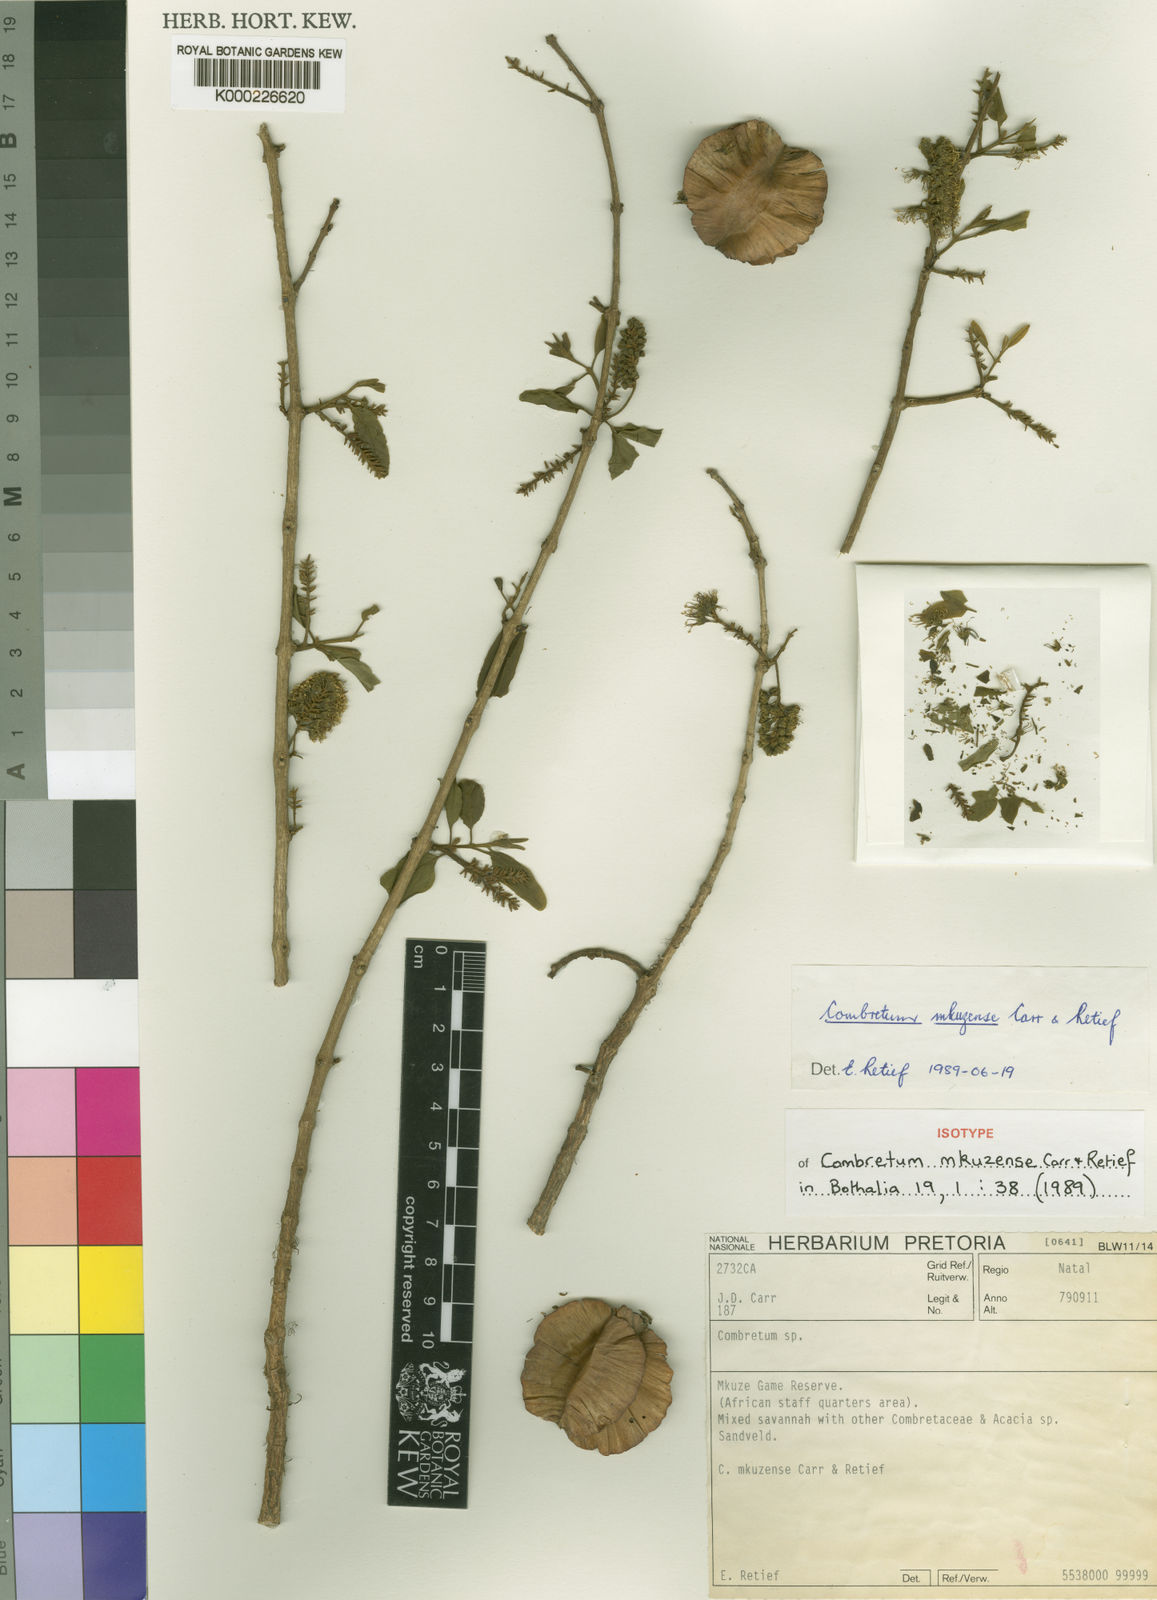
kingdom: Plantae
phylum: Tracheophyta
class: Magnoliopsida
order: Myrtales
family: Combretaceae
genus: Combretum
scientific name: Combretum mkuzense
